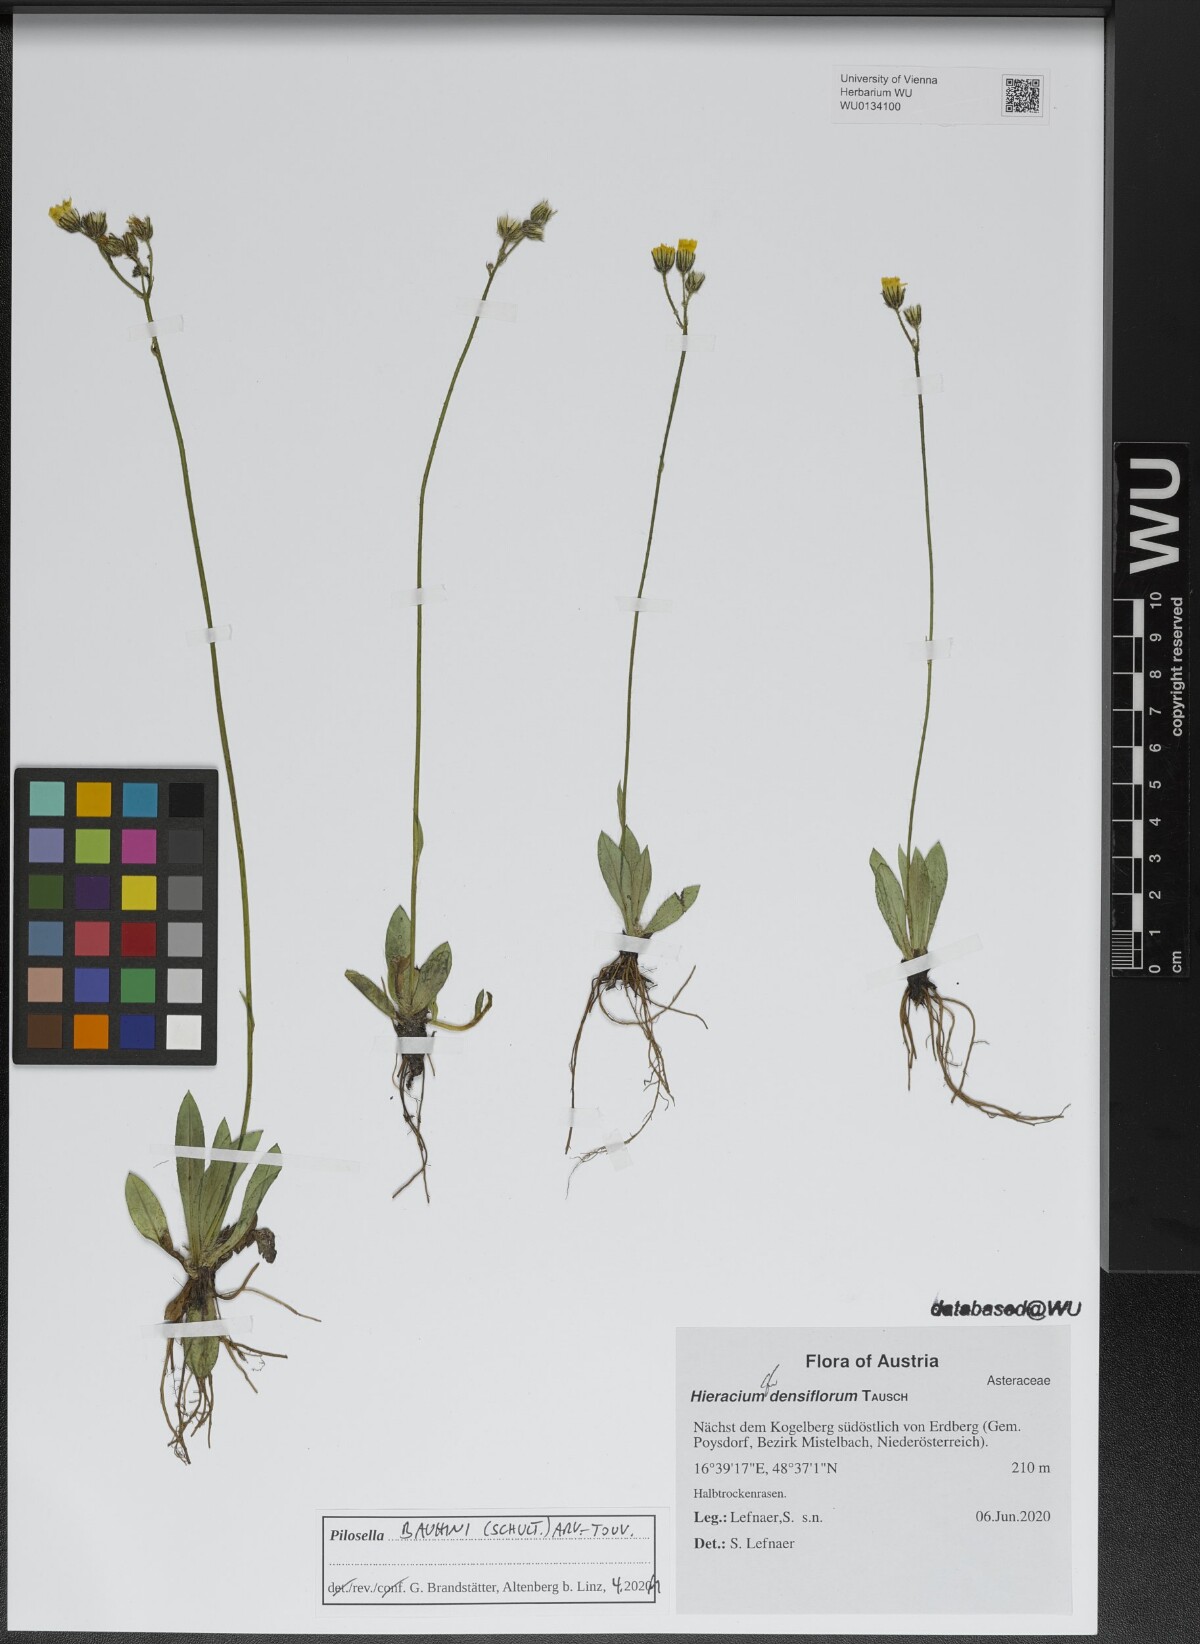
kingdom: Plantae
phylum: Tracheophyta
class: Magnoliopsida
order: Asterales
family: Asteraceae
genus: Pilosella
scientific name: Pilosella bauhini
